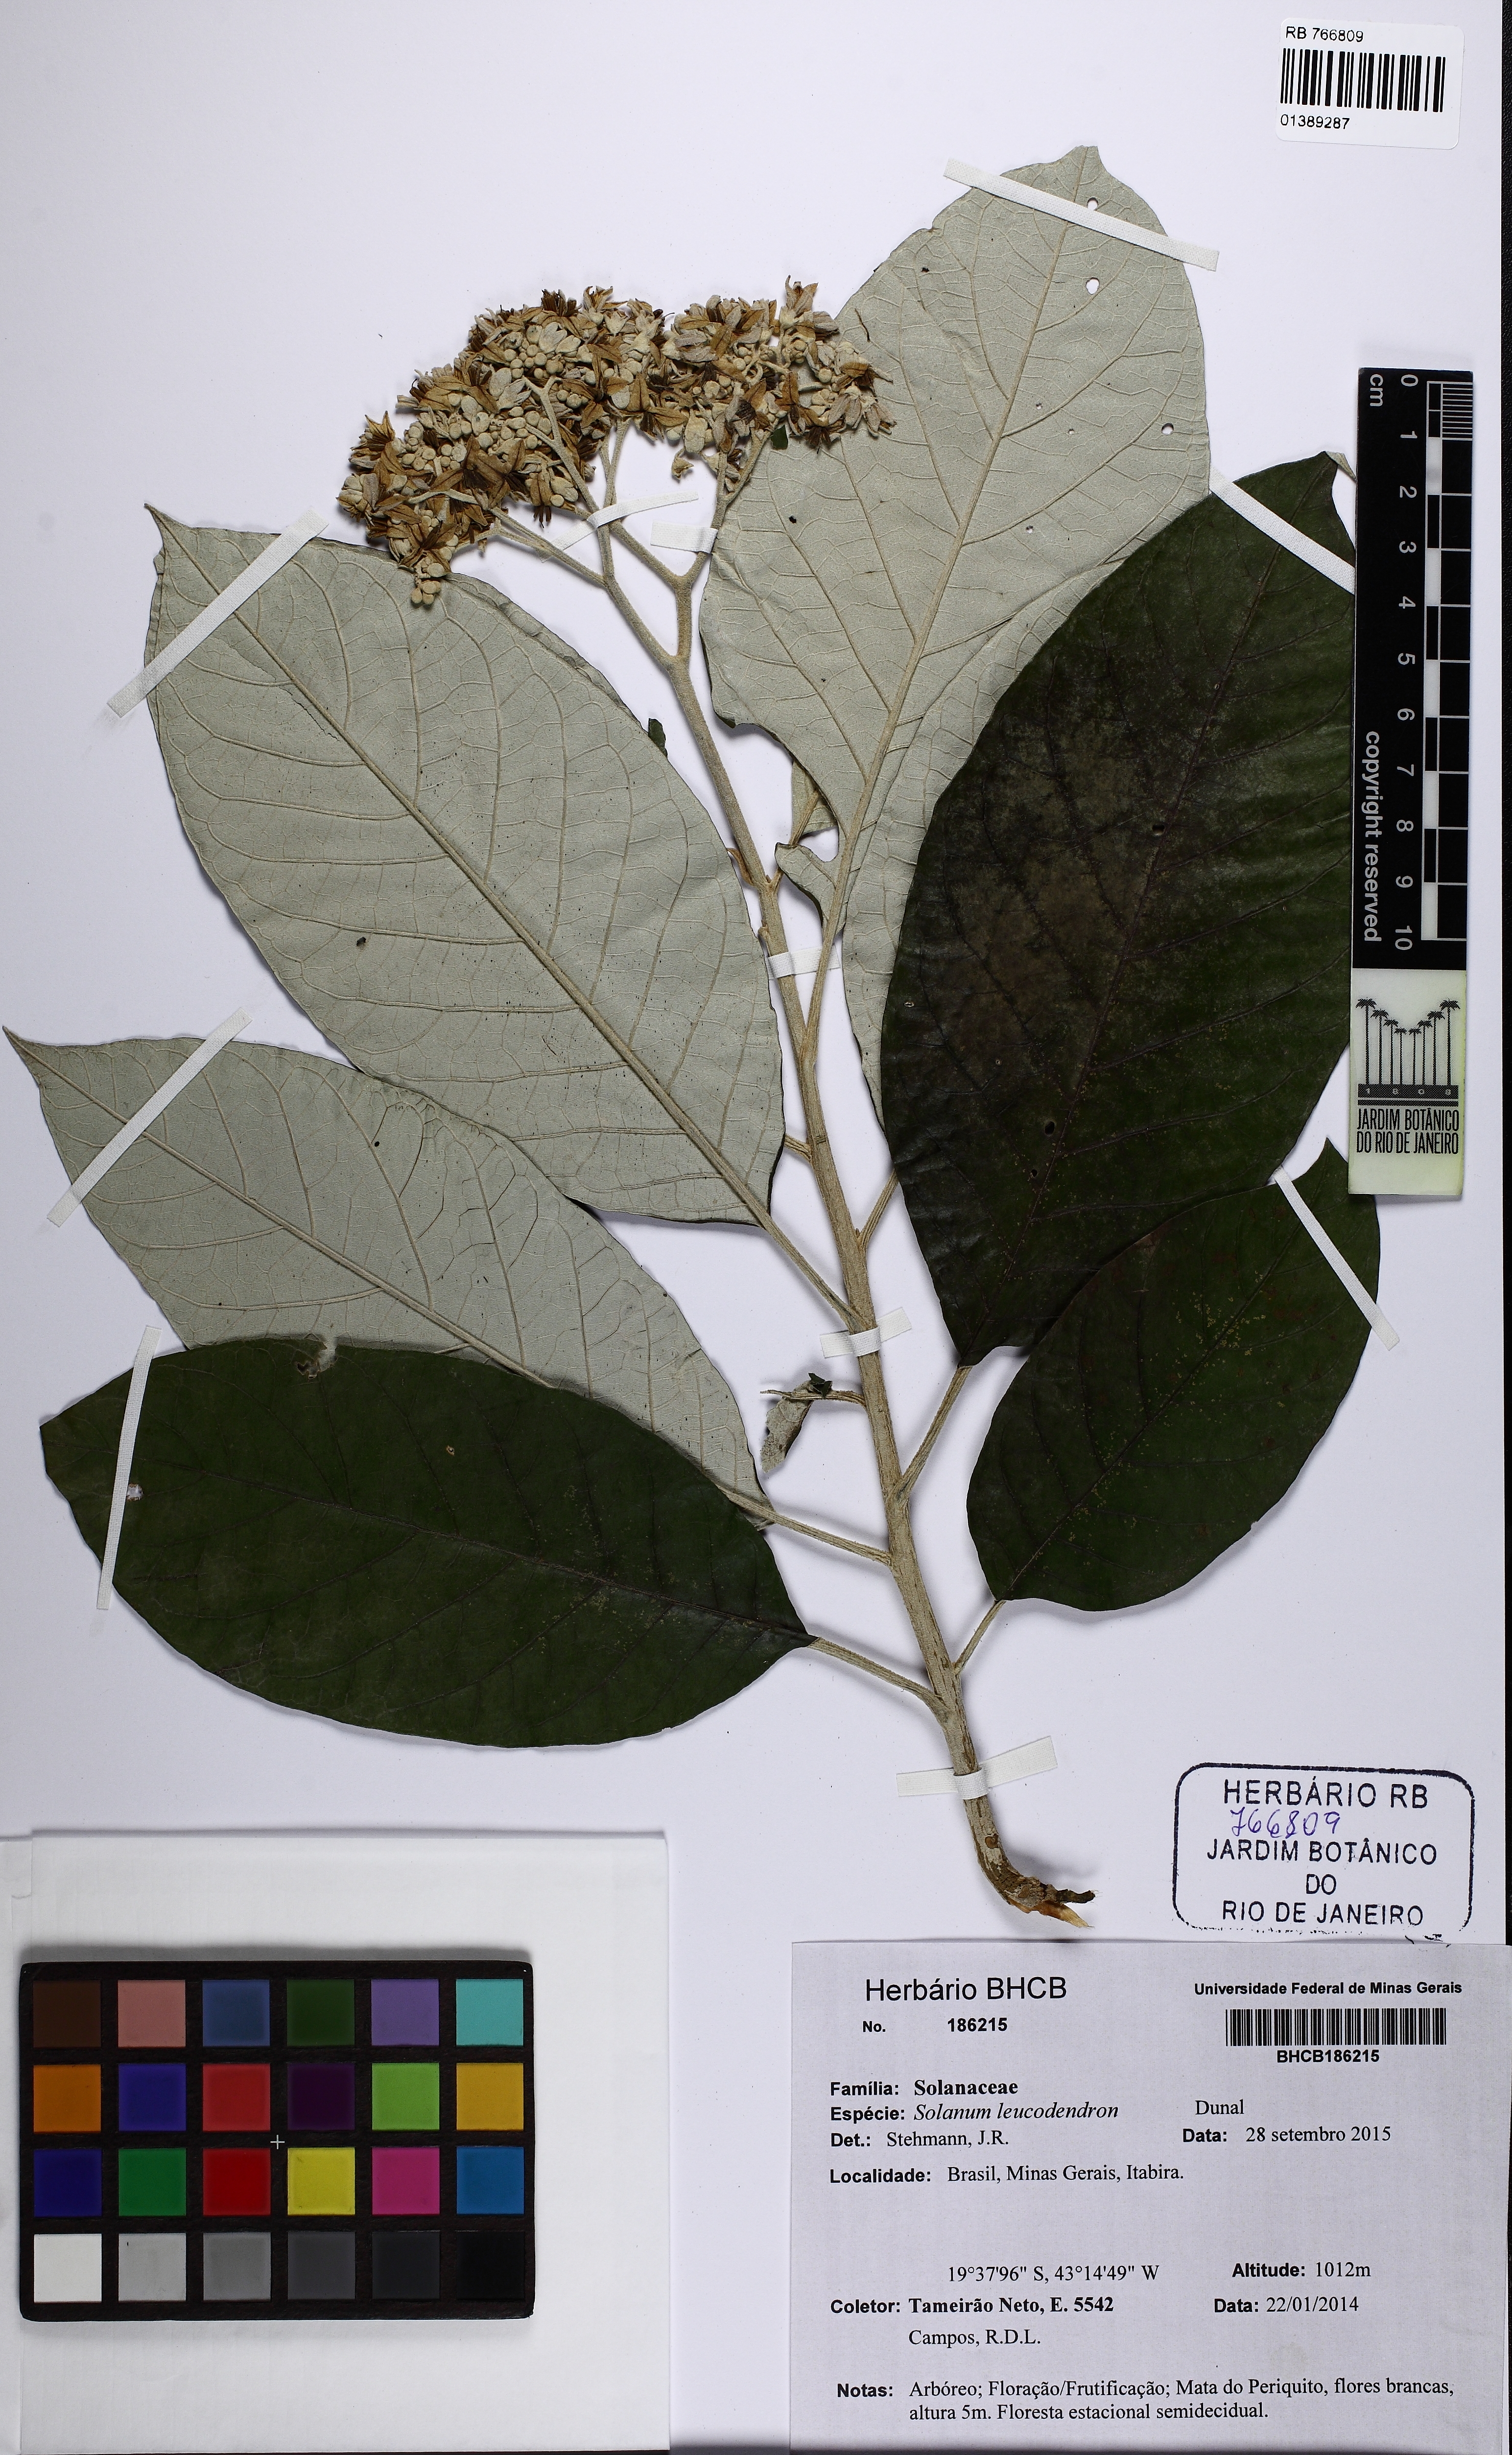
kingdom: Plantae
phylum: Tracheophyta
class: Magnoliopsida
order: Solanales
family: Solanaceae
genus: Solanum
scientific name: Solanum leucodendron
